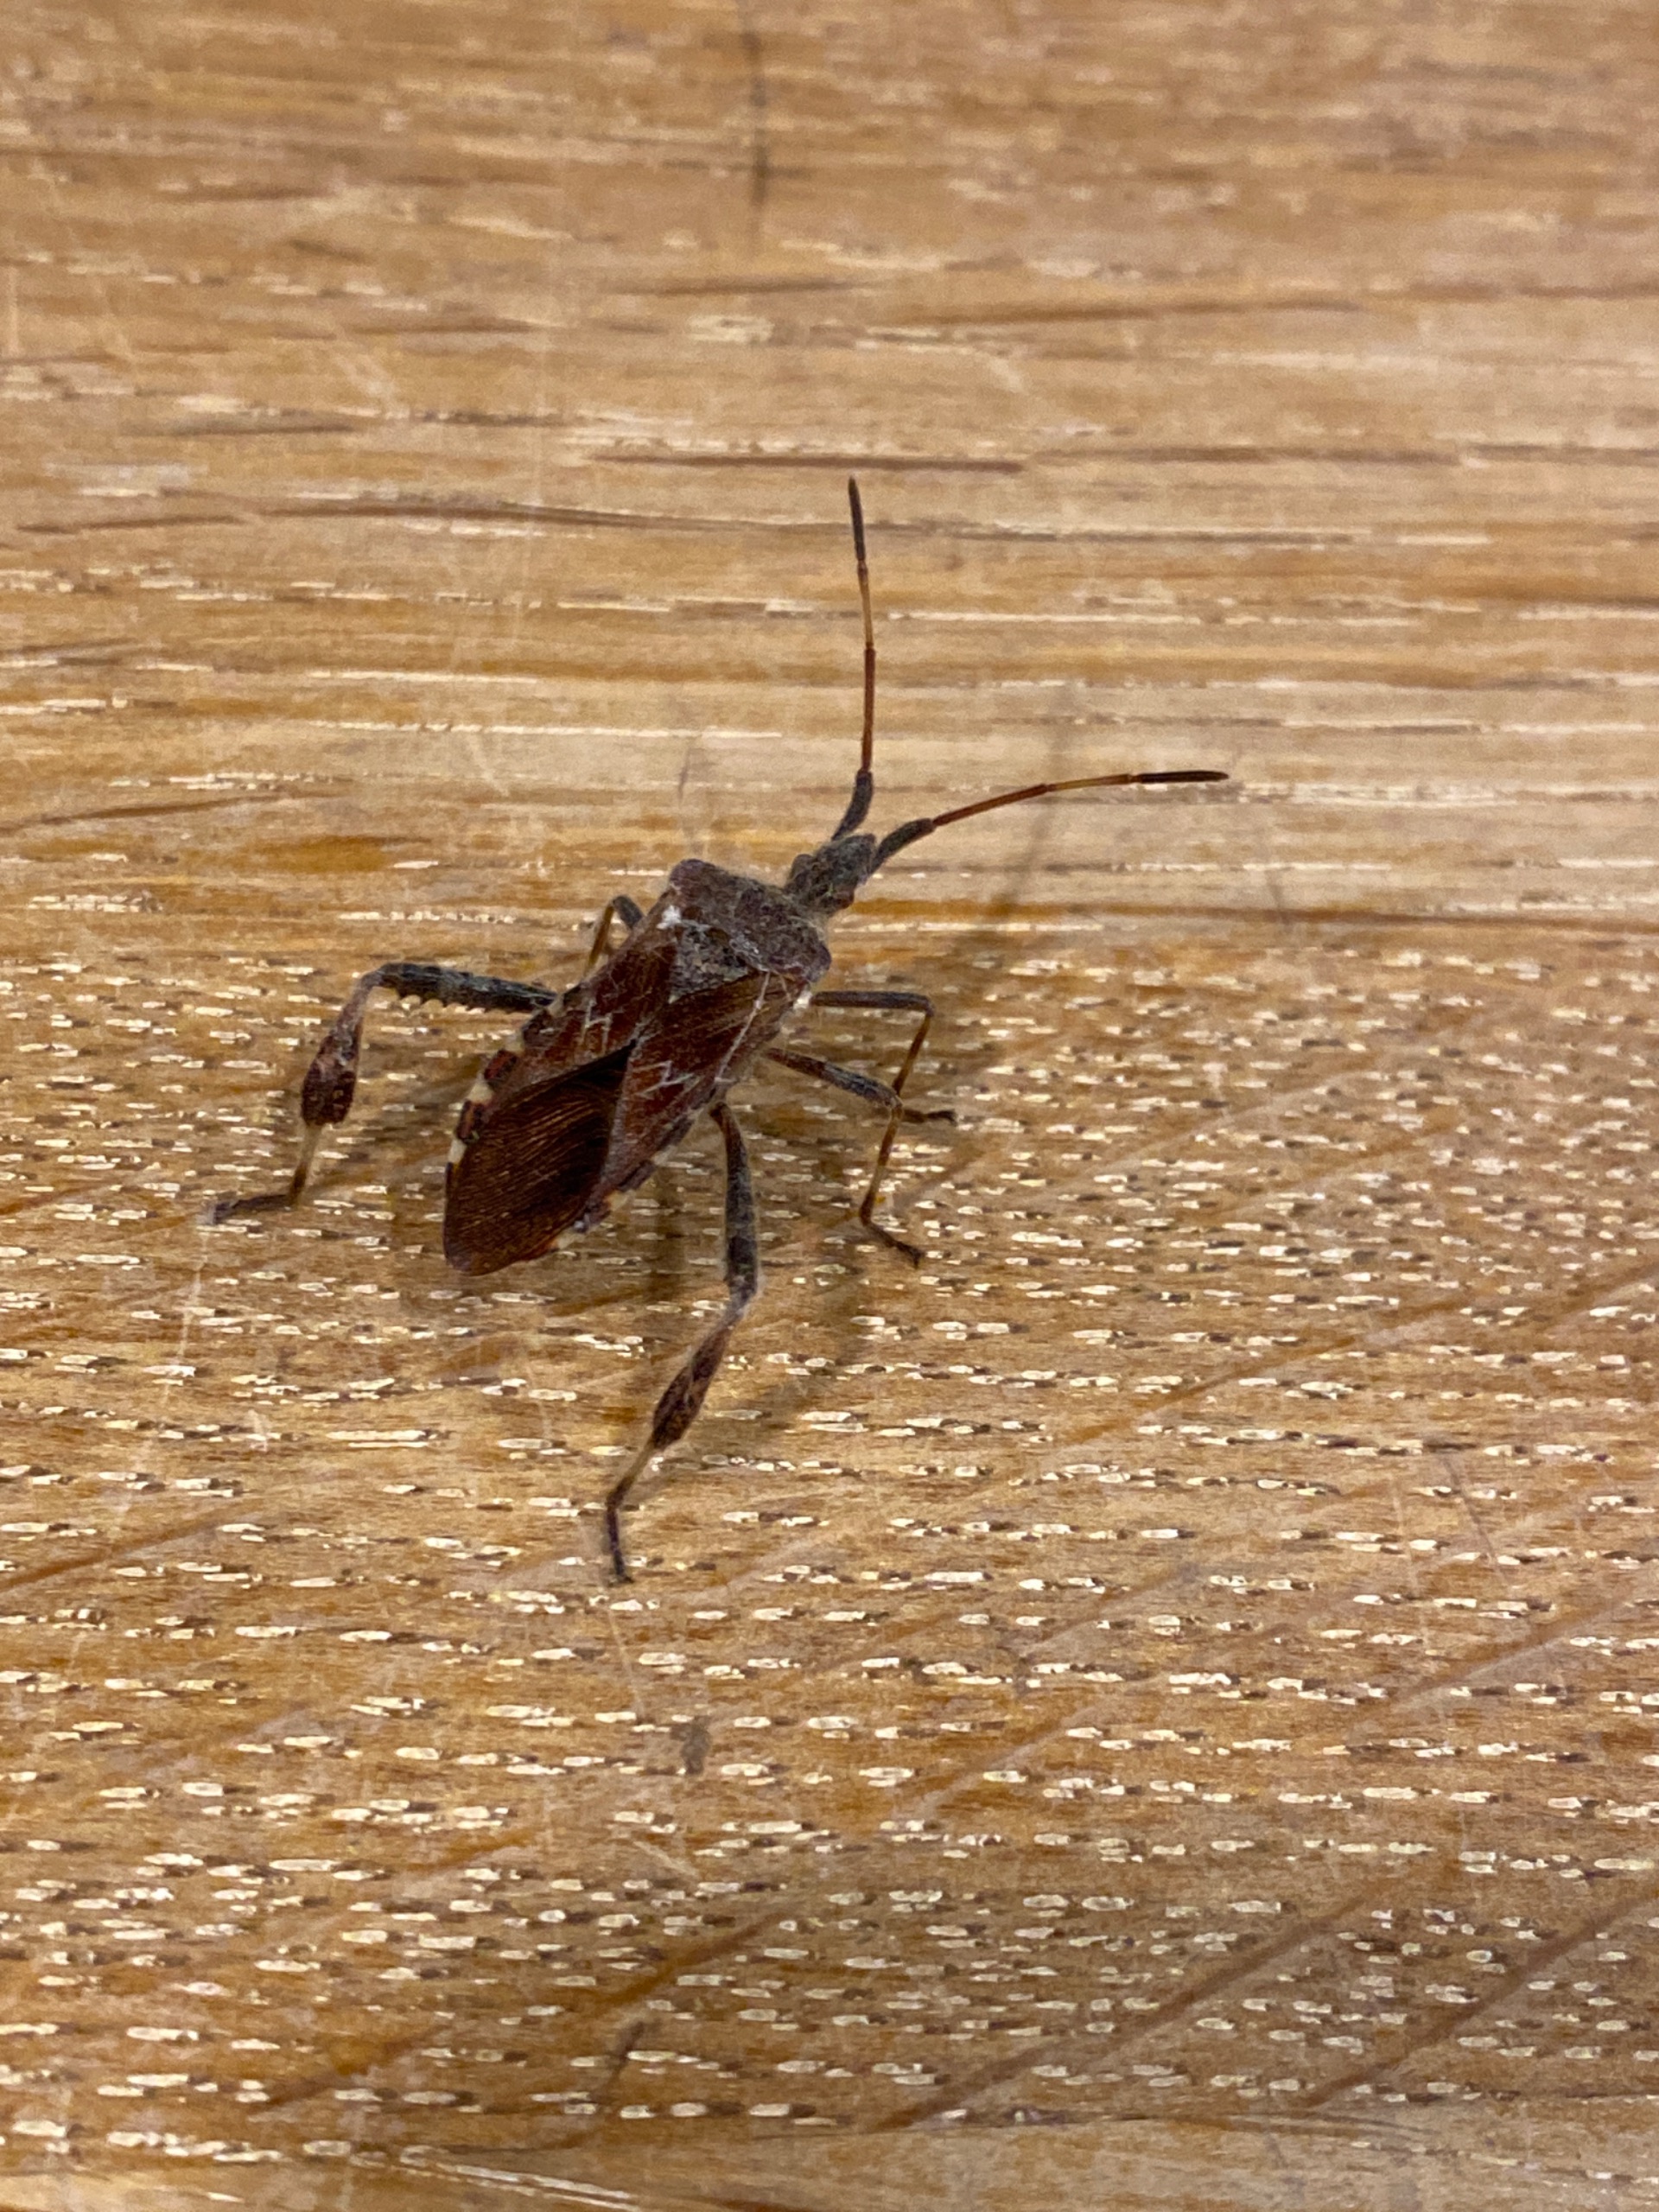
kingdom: Animalia
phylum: Arthropoda
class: Insecta
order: Hemiptera
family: Coreidae
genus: Leptoglossus
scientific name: Leptoglossus occidentalis
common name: Amerikansk fyrretæge
